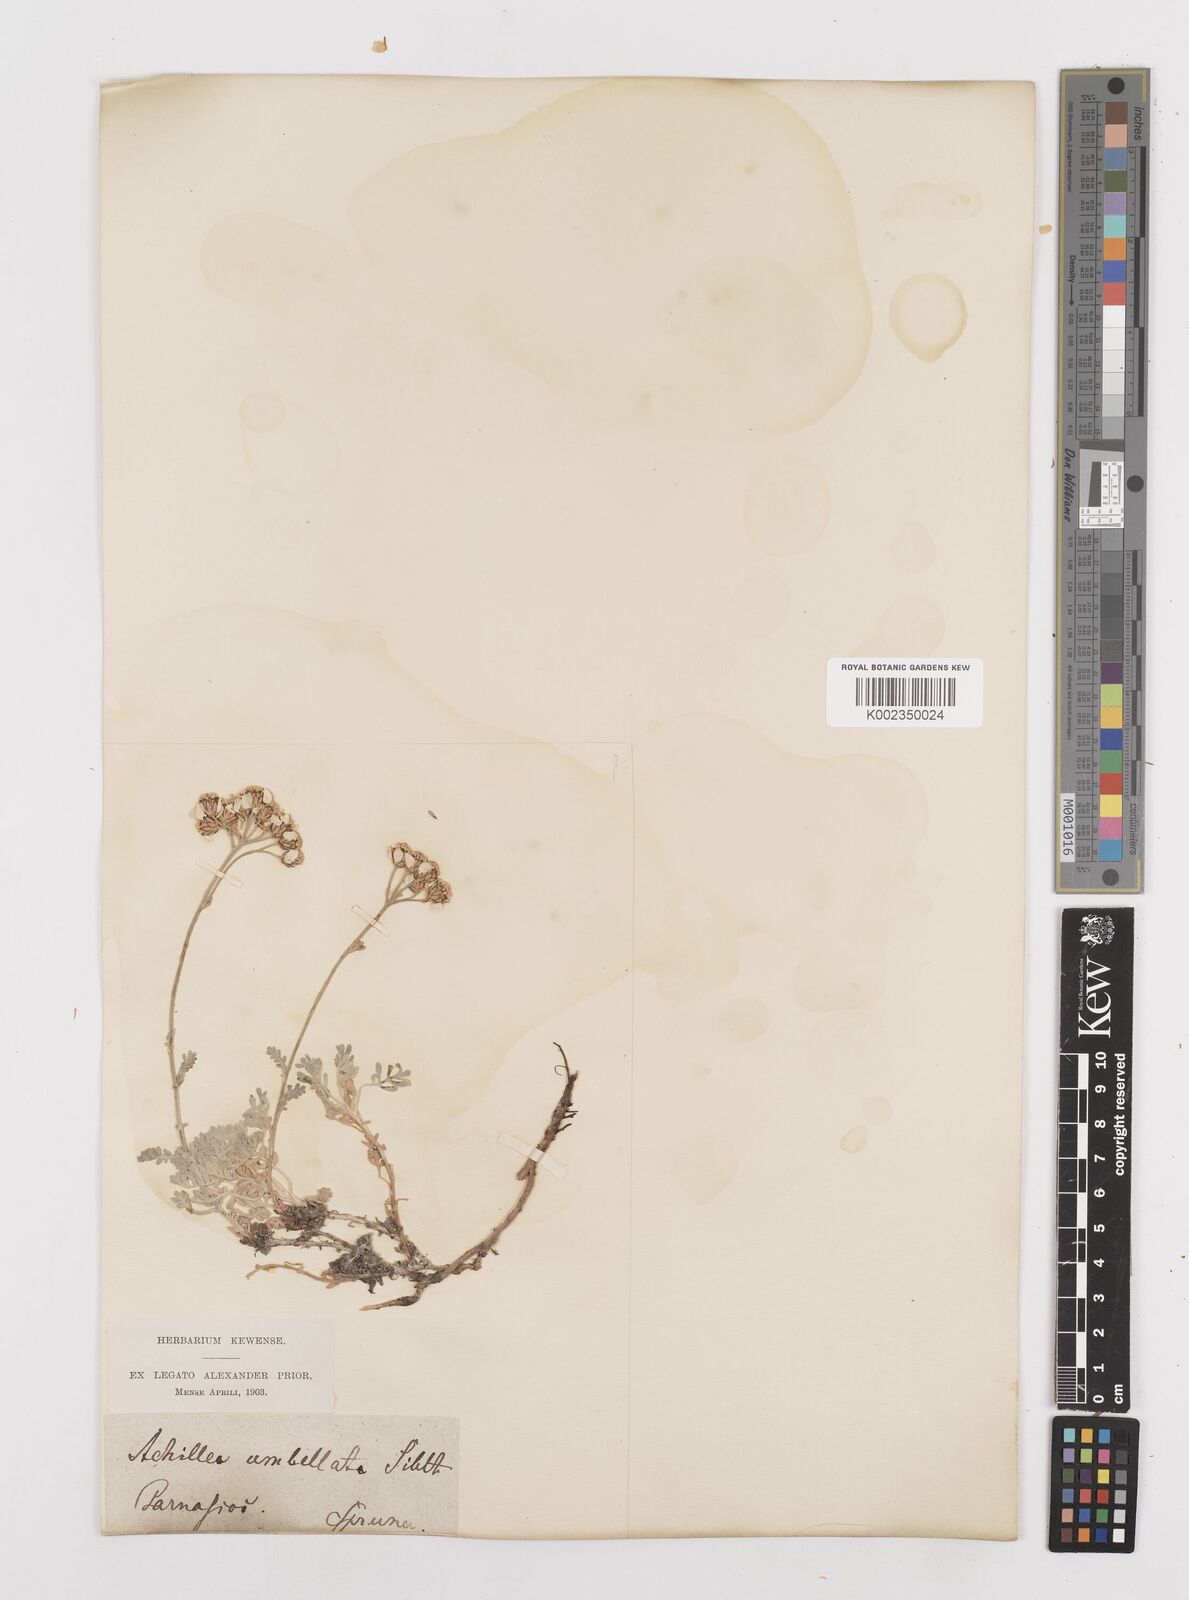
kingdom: Plantae
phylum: Tracheophyta
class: Magnoliopsida
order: Asterales
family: Asteraceae
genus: Achillea
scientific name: Achillea umbellata
